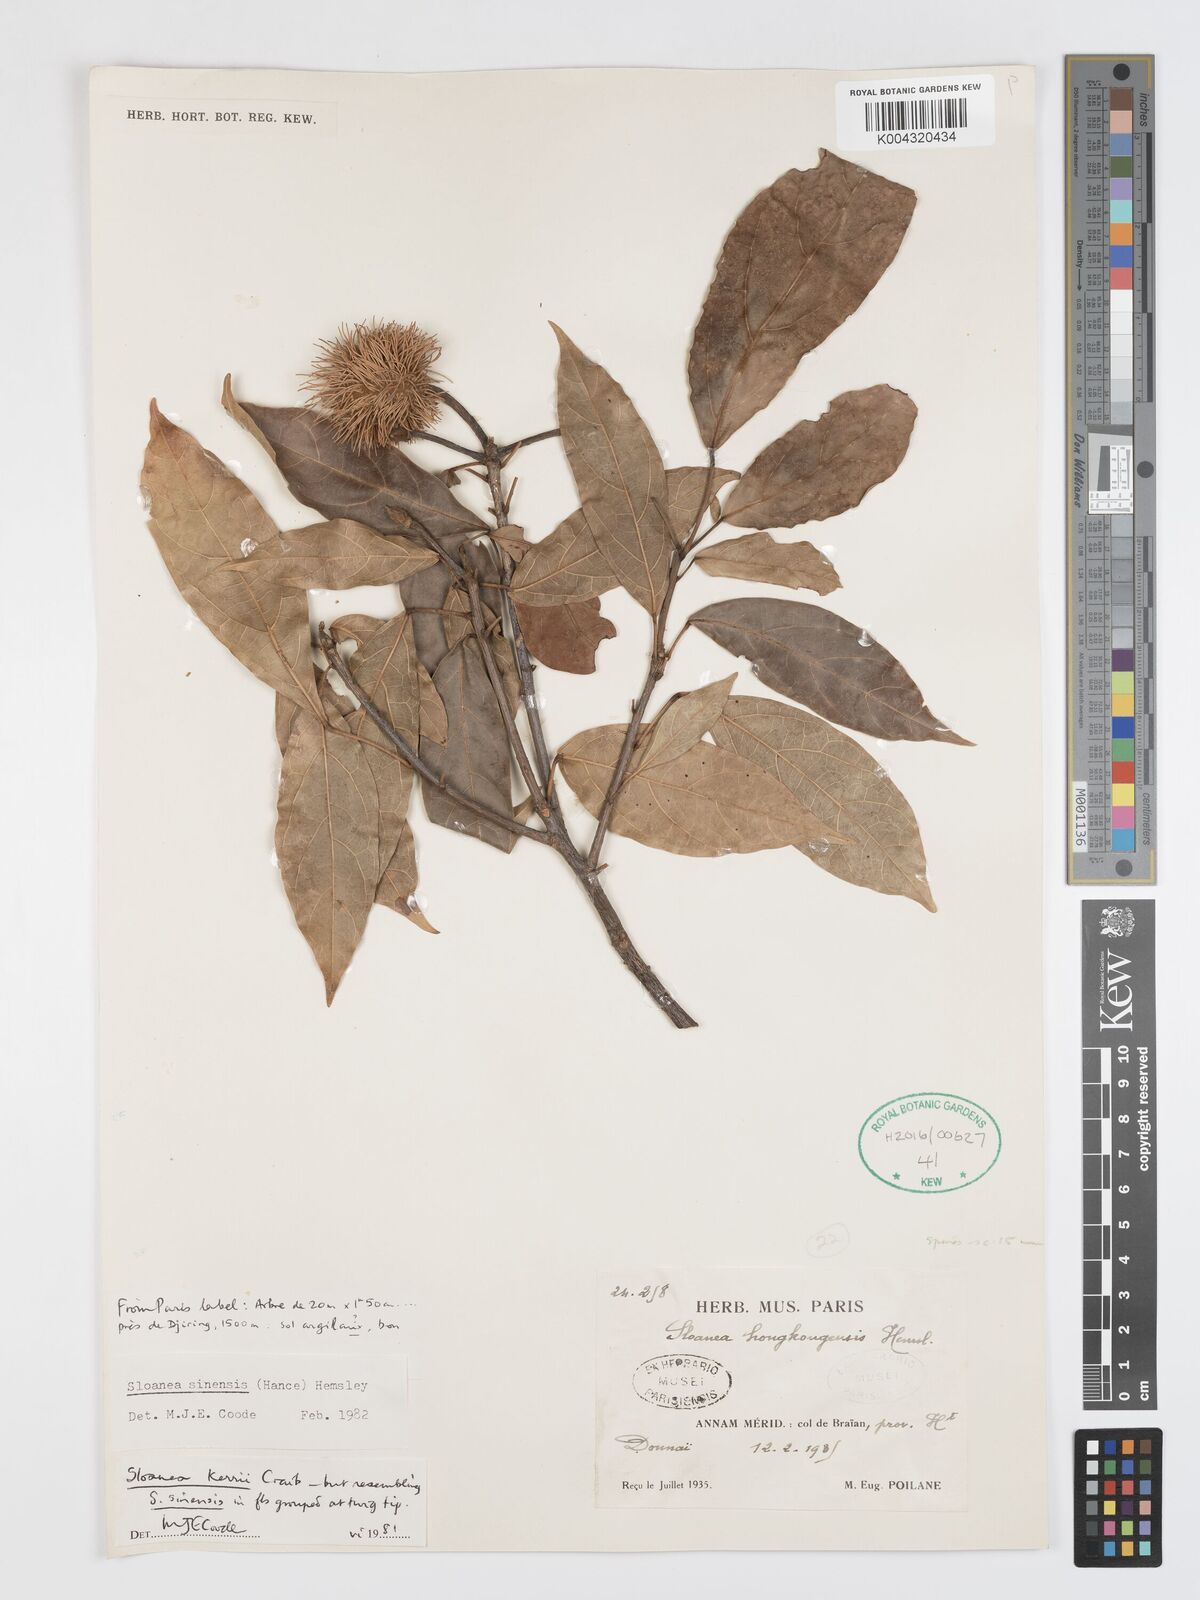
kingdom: Plantae
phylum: Tracheophyta
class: Magnoliopsida
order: Oxalidales
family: Elaeocarpaceae
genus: Sloanea
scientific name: Sloanea sinensis
